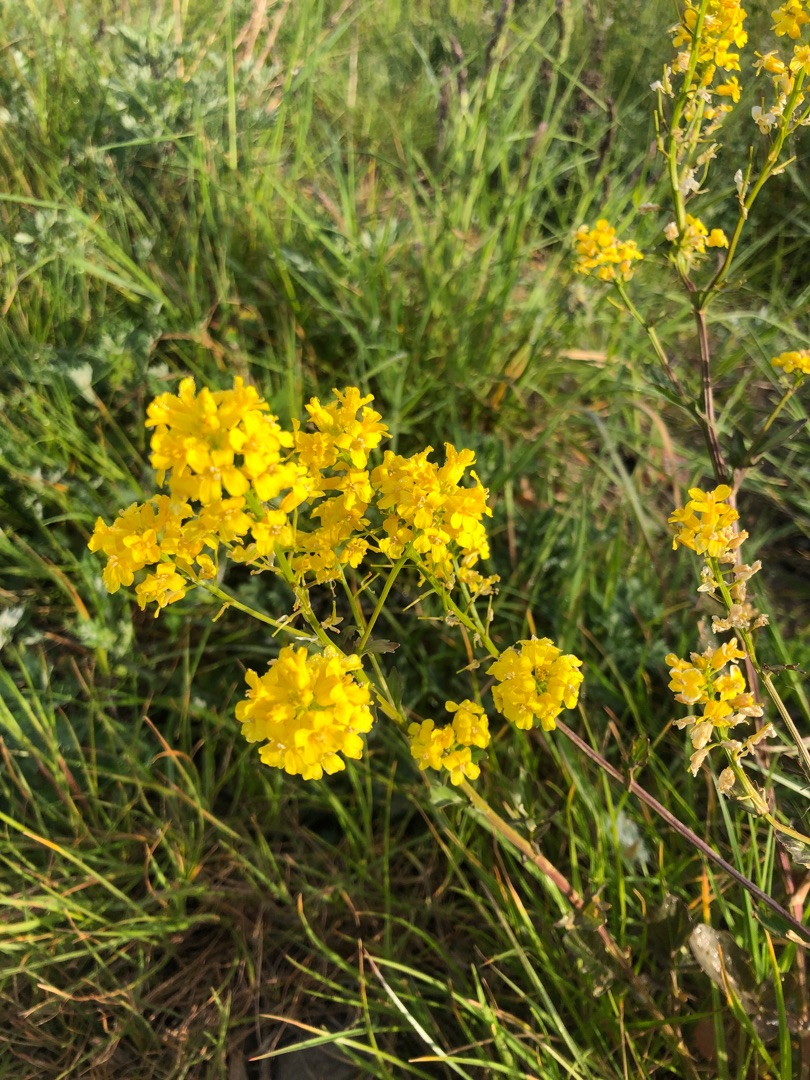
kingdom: Plantae
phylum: Tracheophyta
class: Magnoliopsida
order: Brassicales
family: Brassicaceae
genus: Barbarea
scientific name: Barbarea vulgaris
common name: Udspærret vinterkarse
